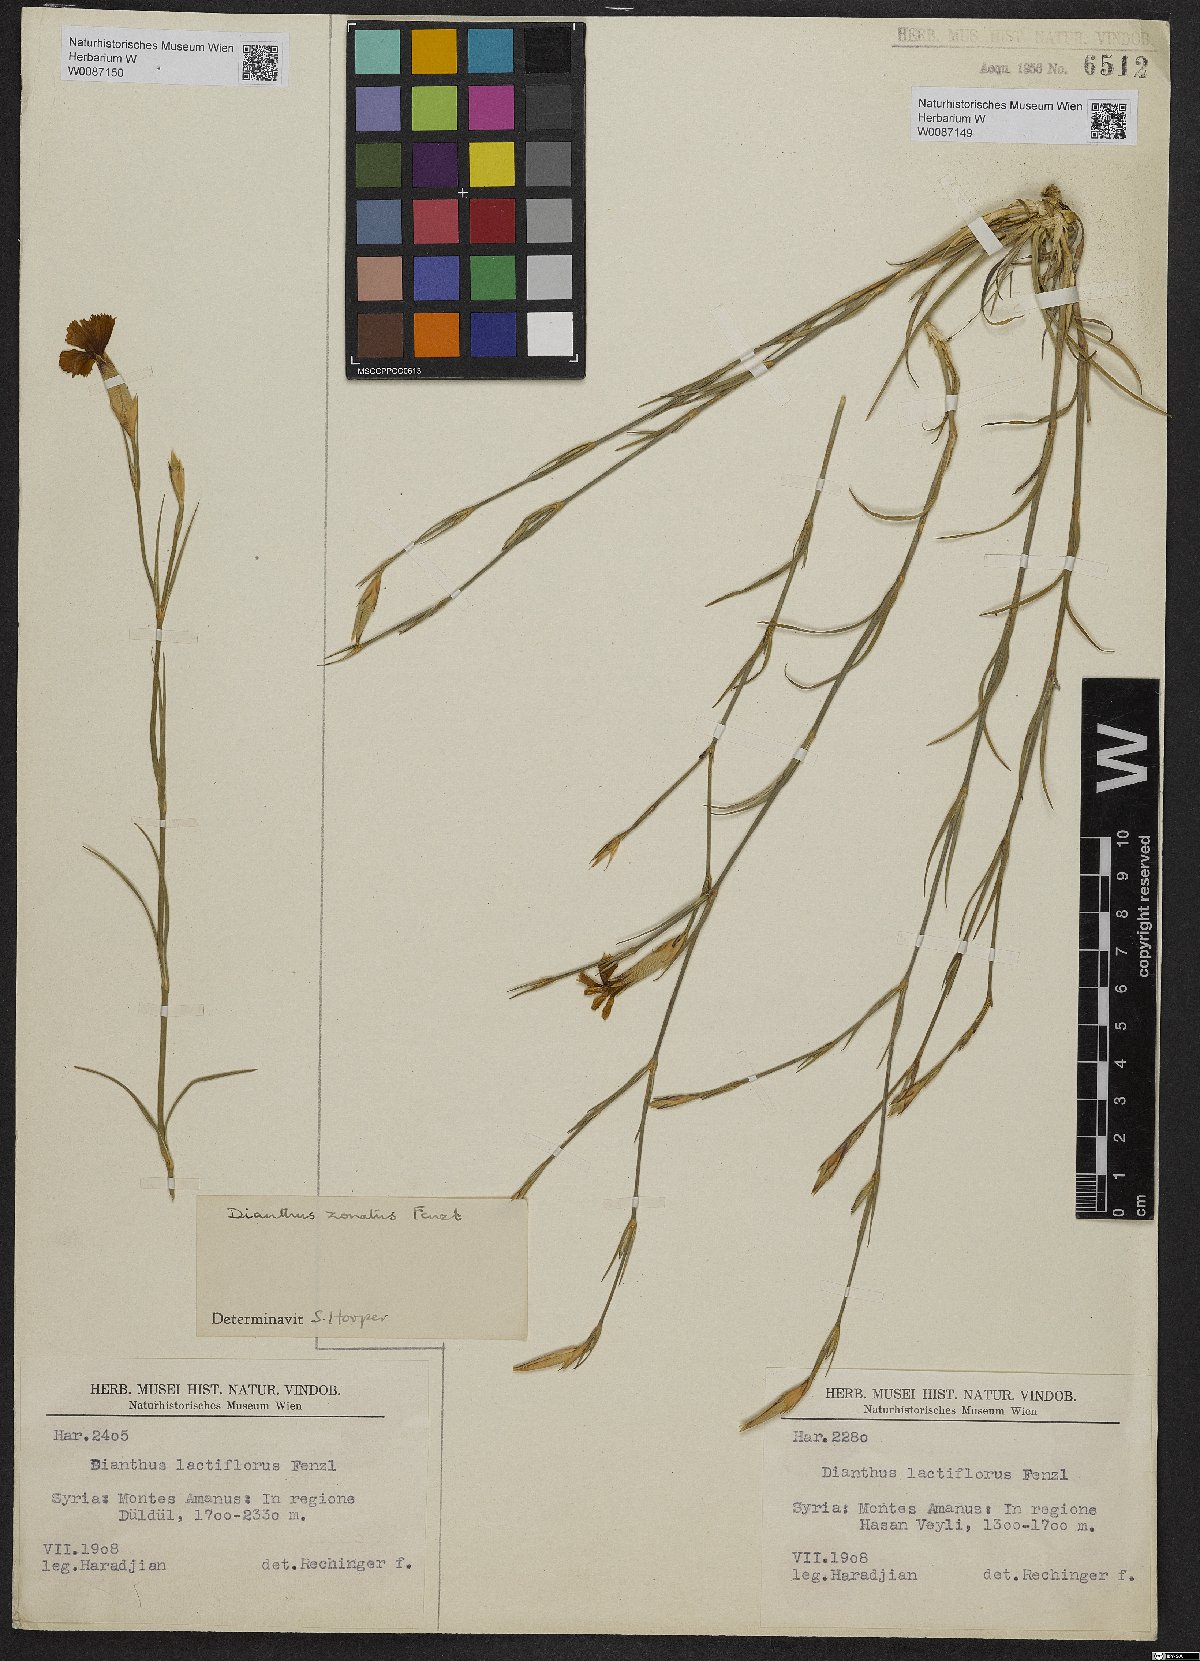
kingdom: Plantae
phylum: Tracheophyta
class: Magnoliopsida
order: Caryophyllales
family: Caryophyllaceae
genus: Dianthus
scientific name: Dianthus zonatus
